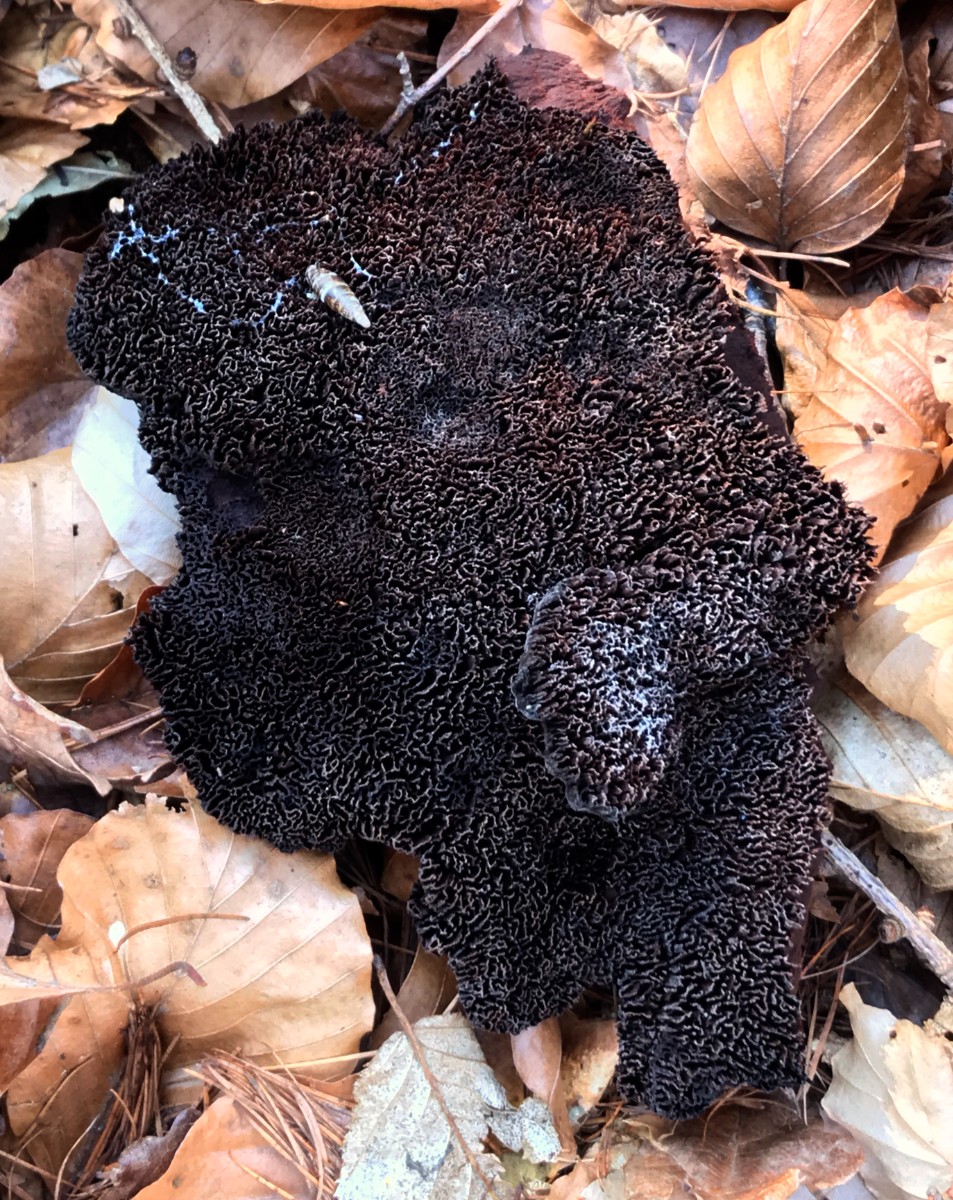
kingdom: Fungi
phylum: Basidiomycota
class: Agaricomycetes
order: Polyporales
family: Laetiporaceae
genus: Phaeolus
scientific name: Phaeolus schweinitzii
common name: brunporesvamp
